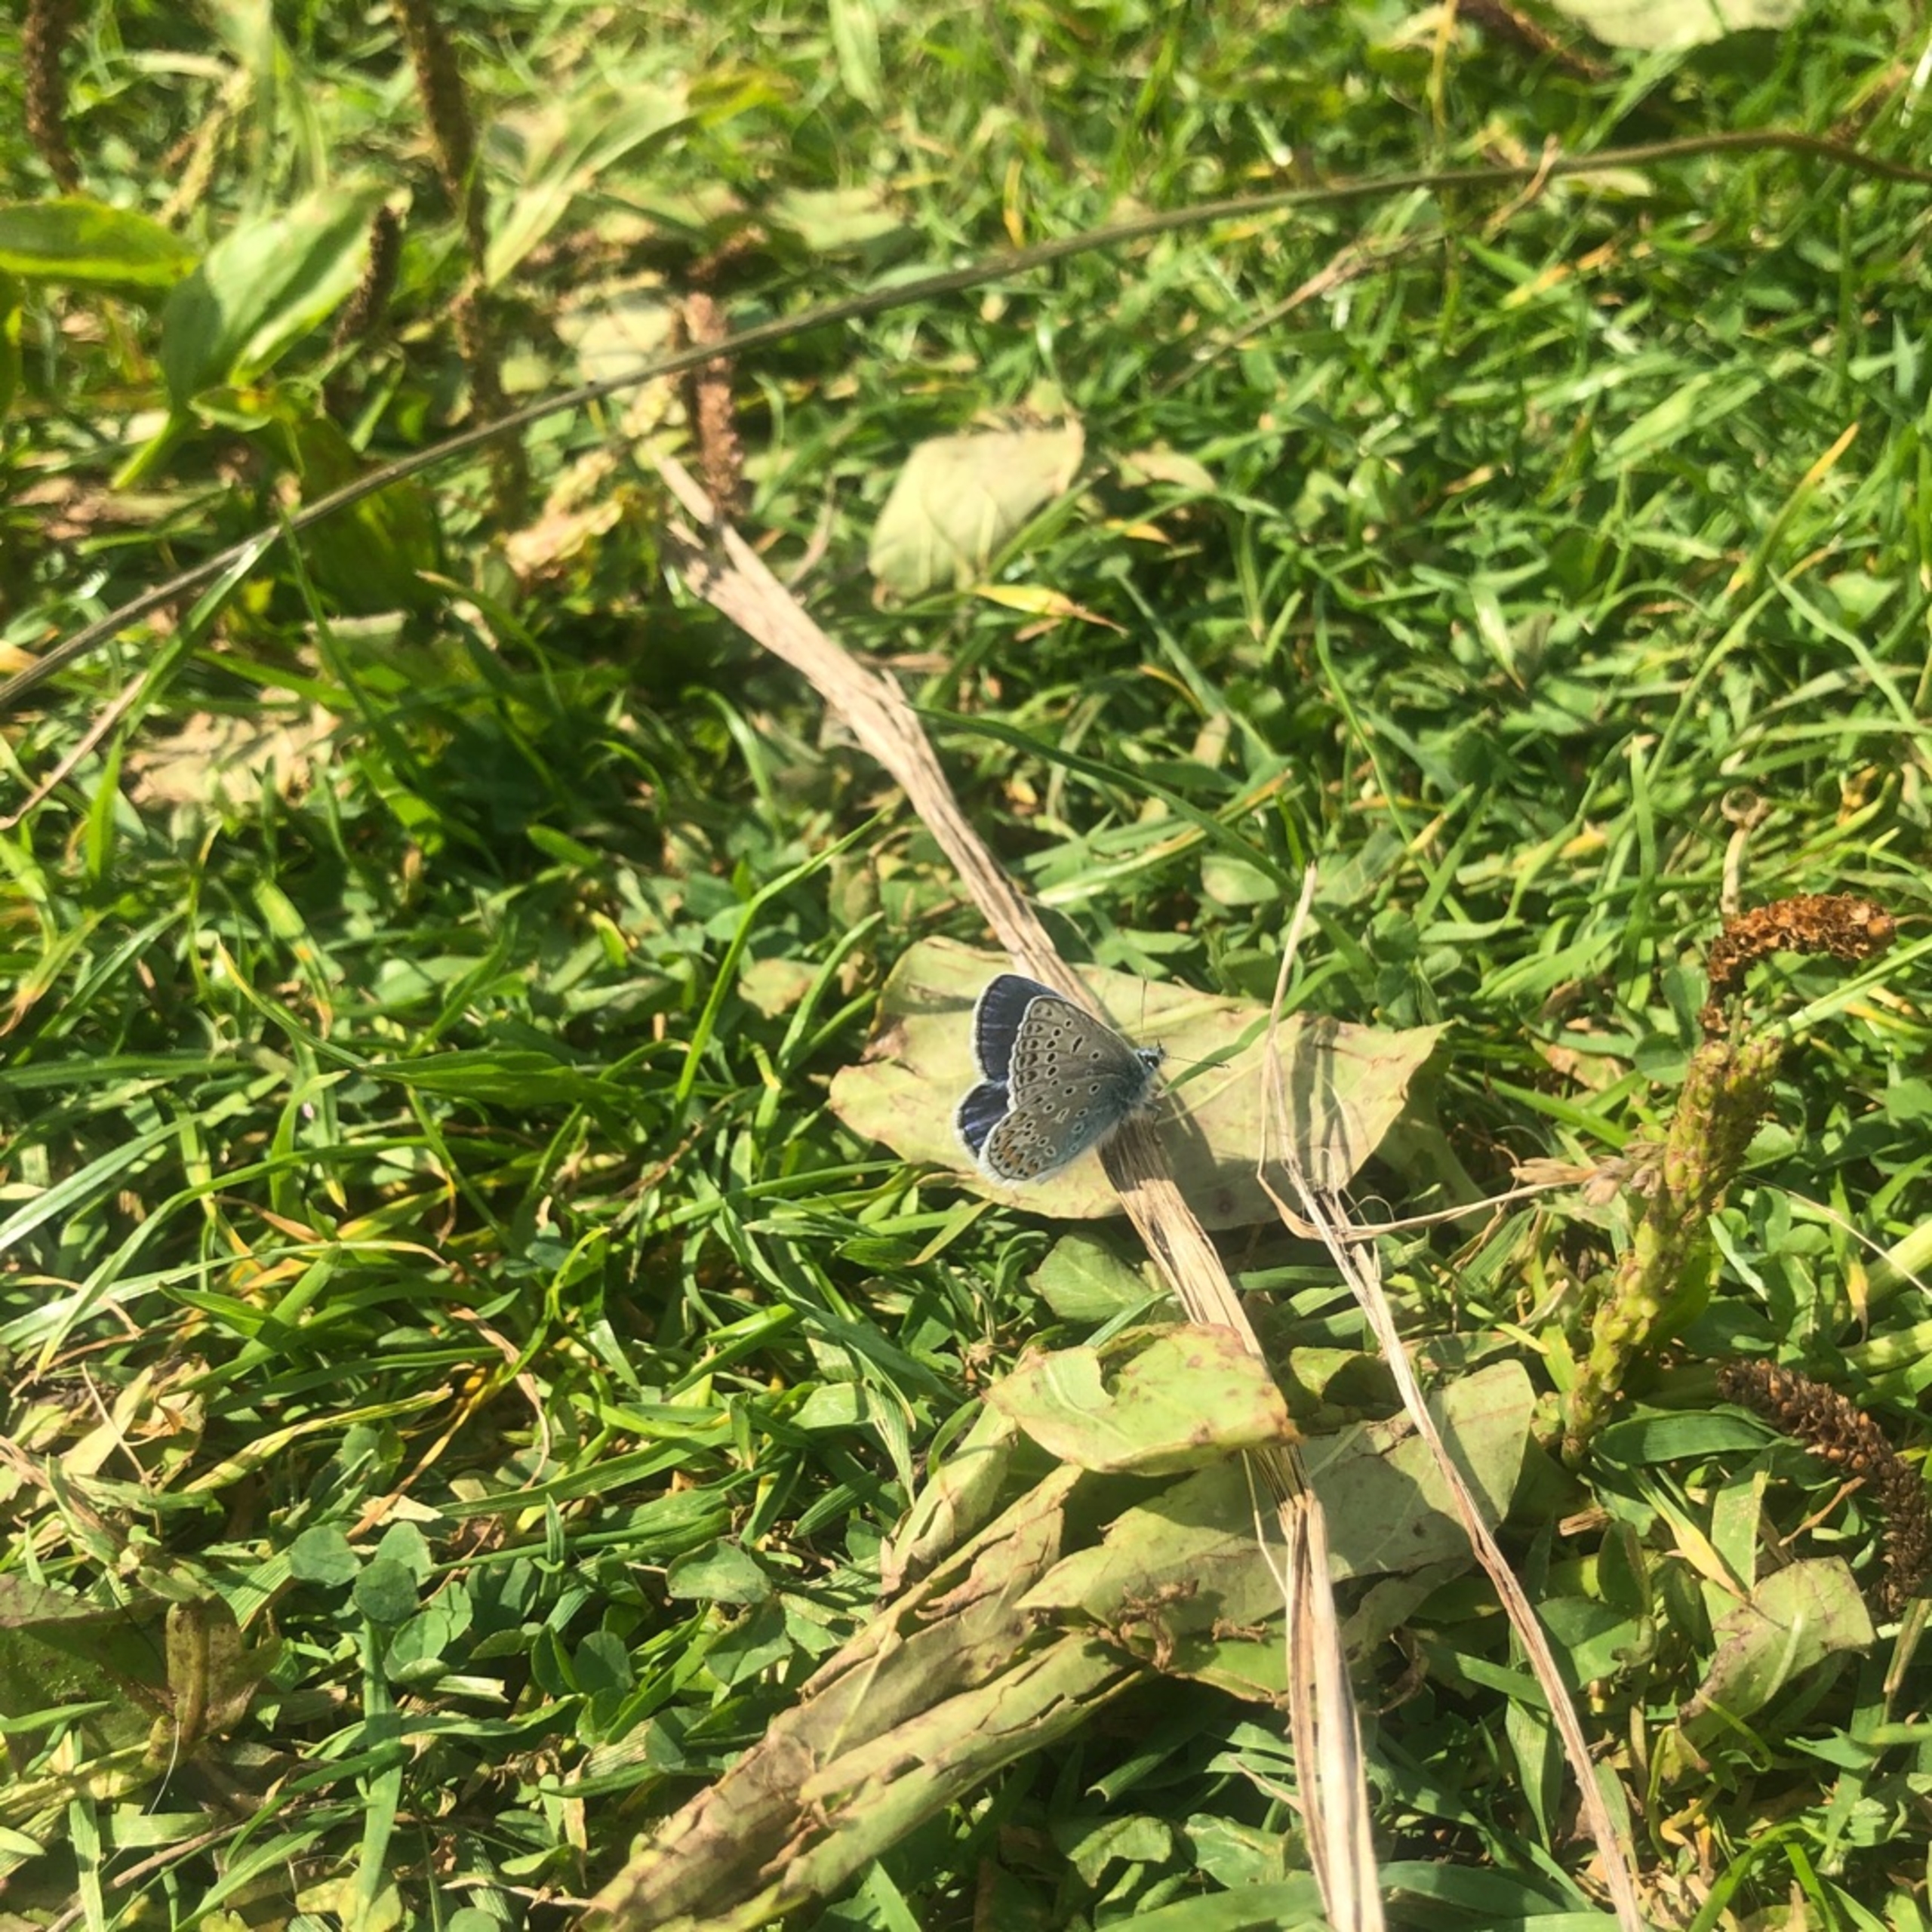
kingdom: Animalia
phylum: Arthropoda
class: Insecta
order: Lepidoptera
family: Lycaenidae
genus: Polyommatus
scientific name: Polyommatus icarus
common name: Almindelig blåfugl
